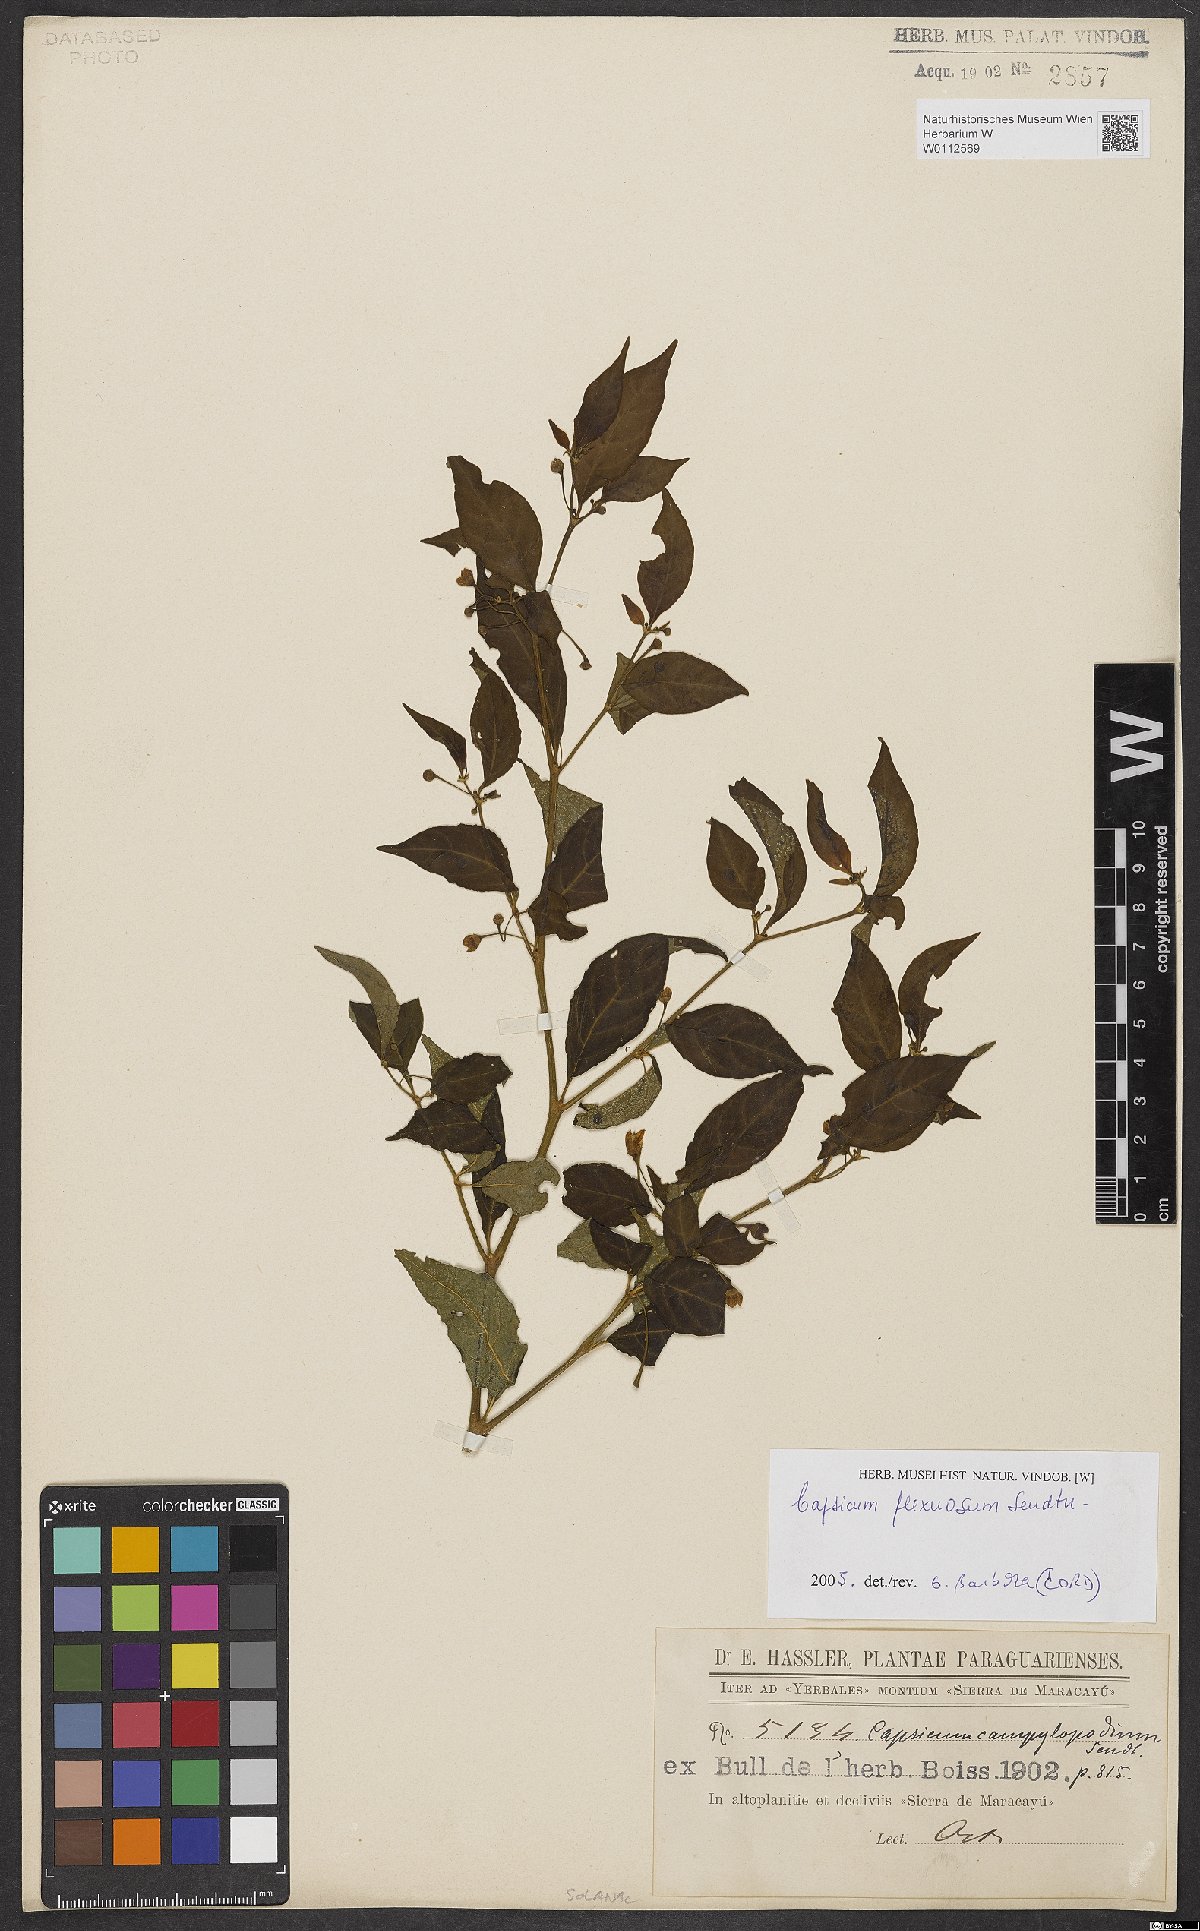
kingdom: Plantae
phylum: Tracheophyta
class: Magnoliopsida
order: Solanales
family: Solanaceae
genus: Capsicum
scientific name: Capsicum flexuosum
